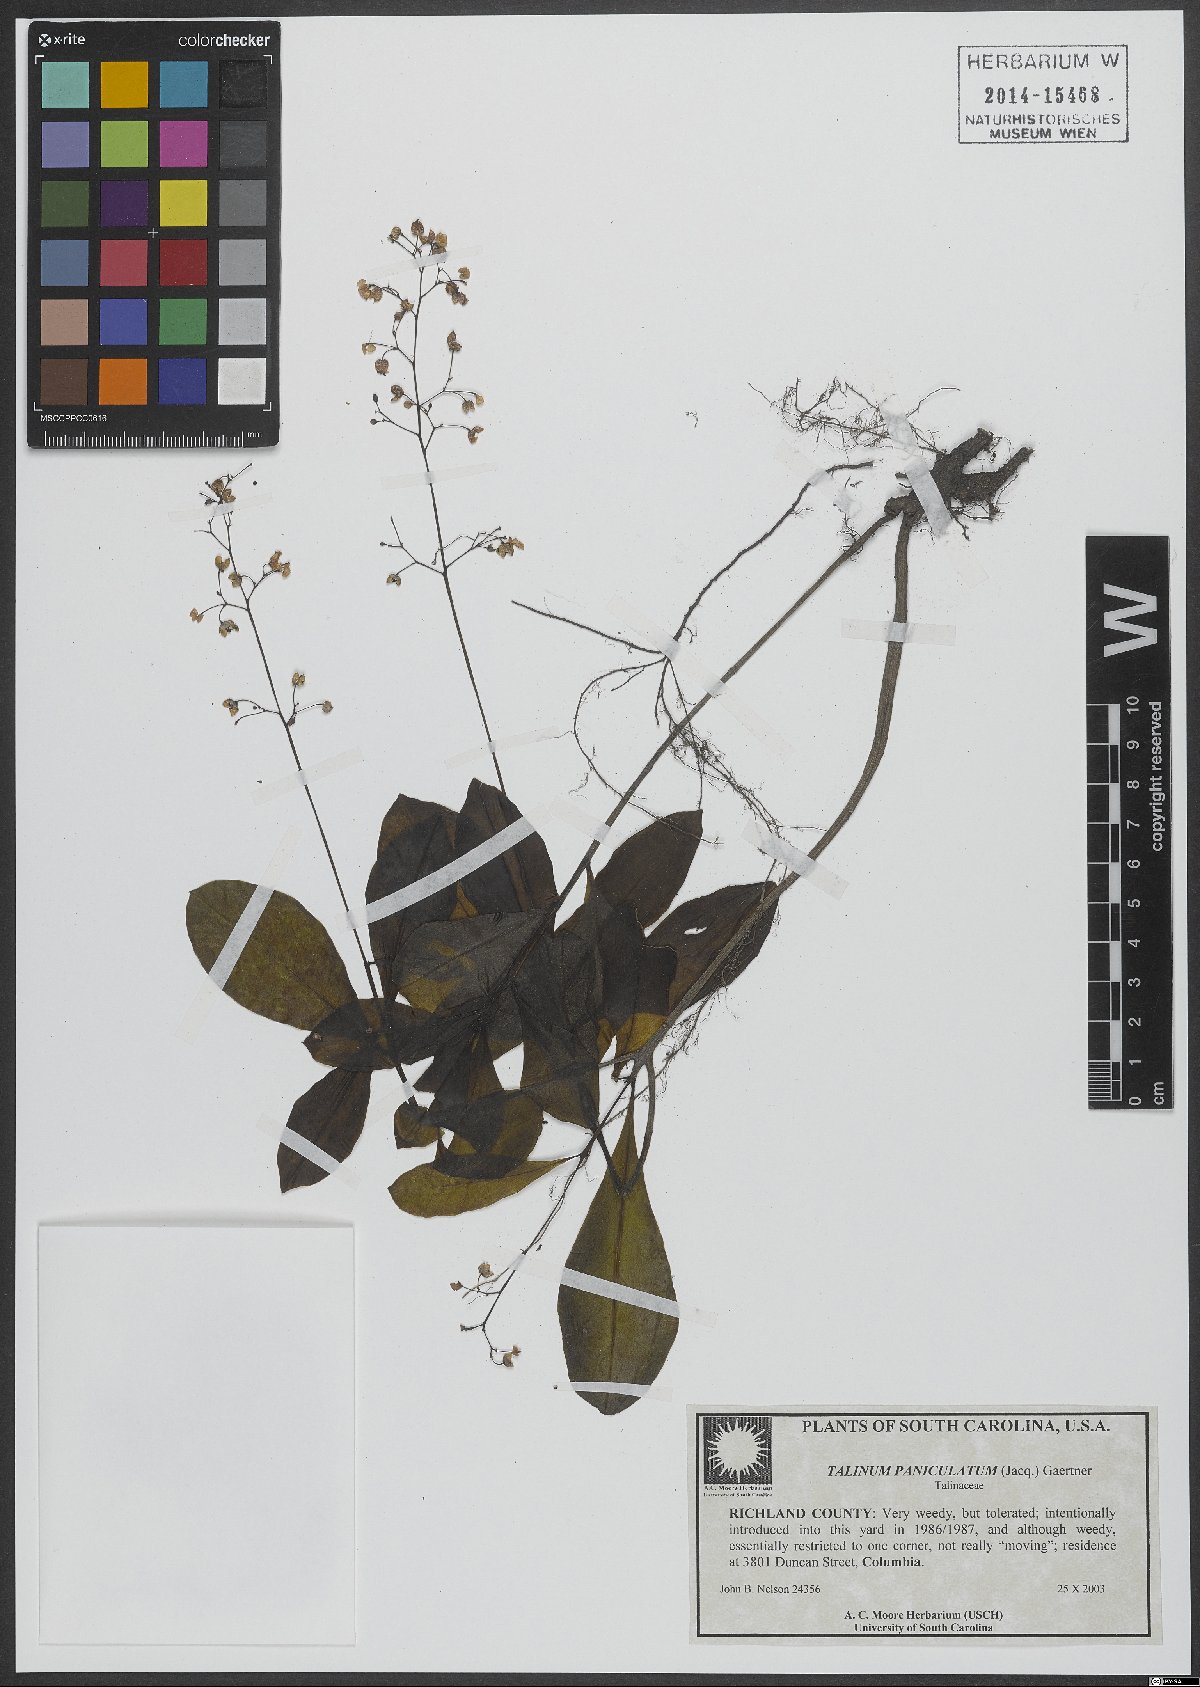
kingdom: Plantae
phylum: Tracheophyta
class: Magnoliopsida
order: Caryophyllales
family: Talinaceae
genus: Talinum
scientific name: Talinum paniculatum
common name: Jewels of opar
